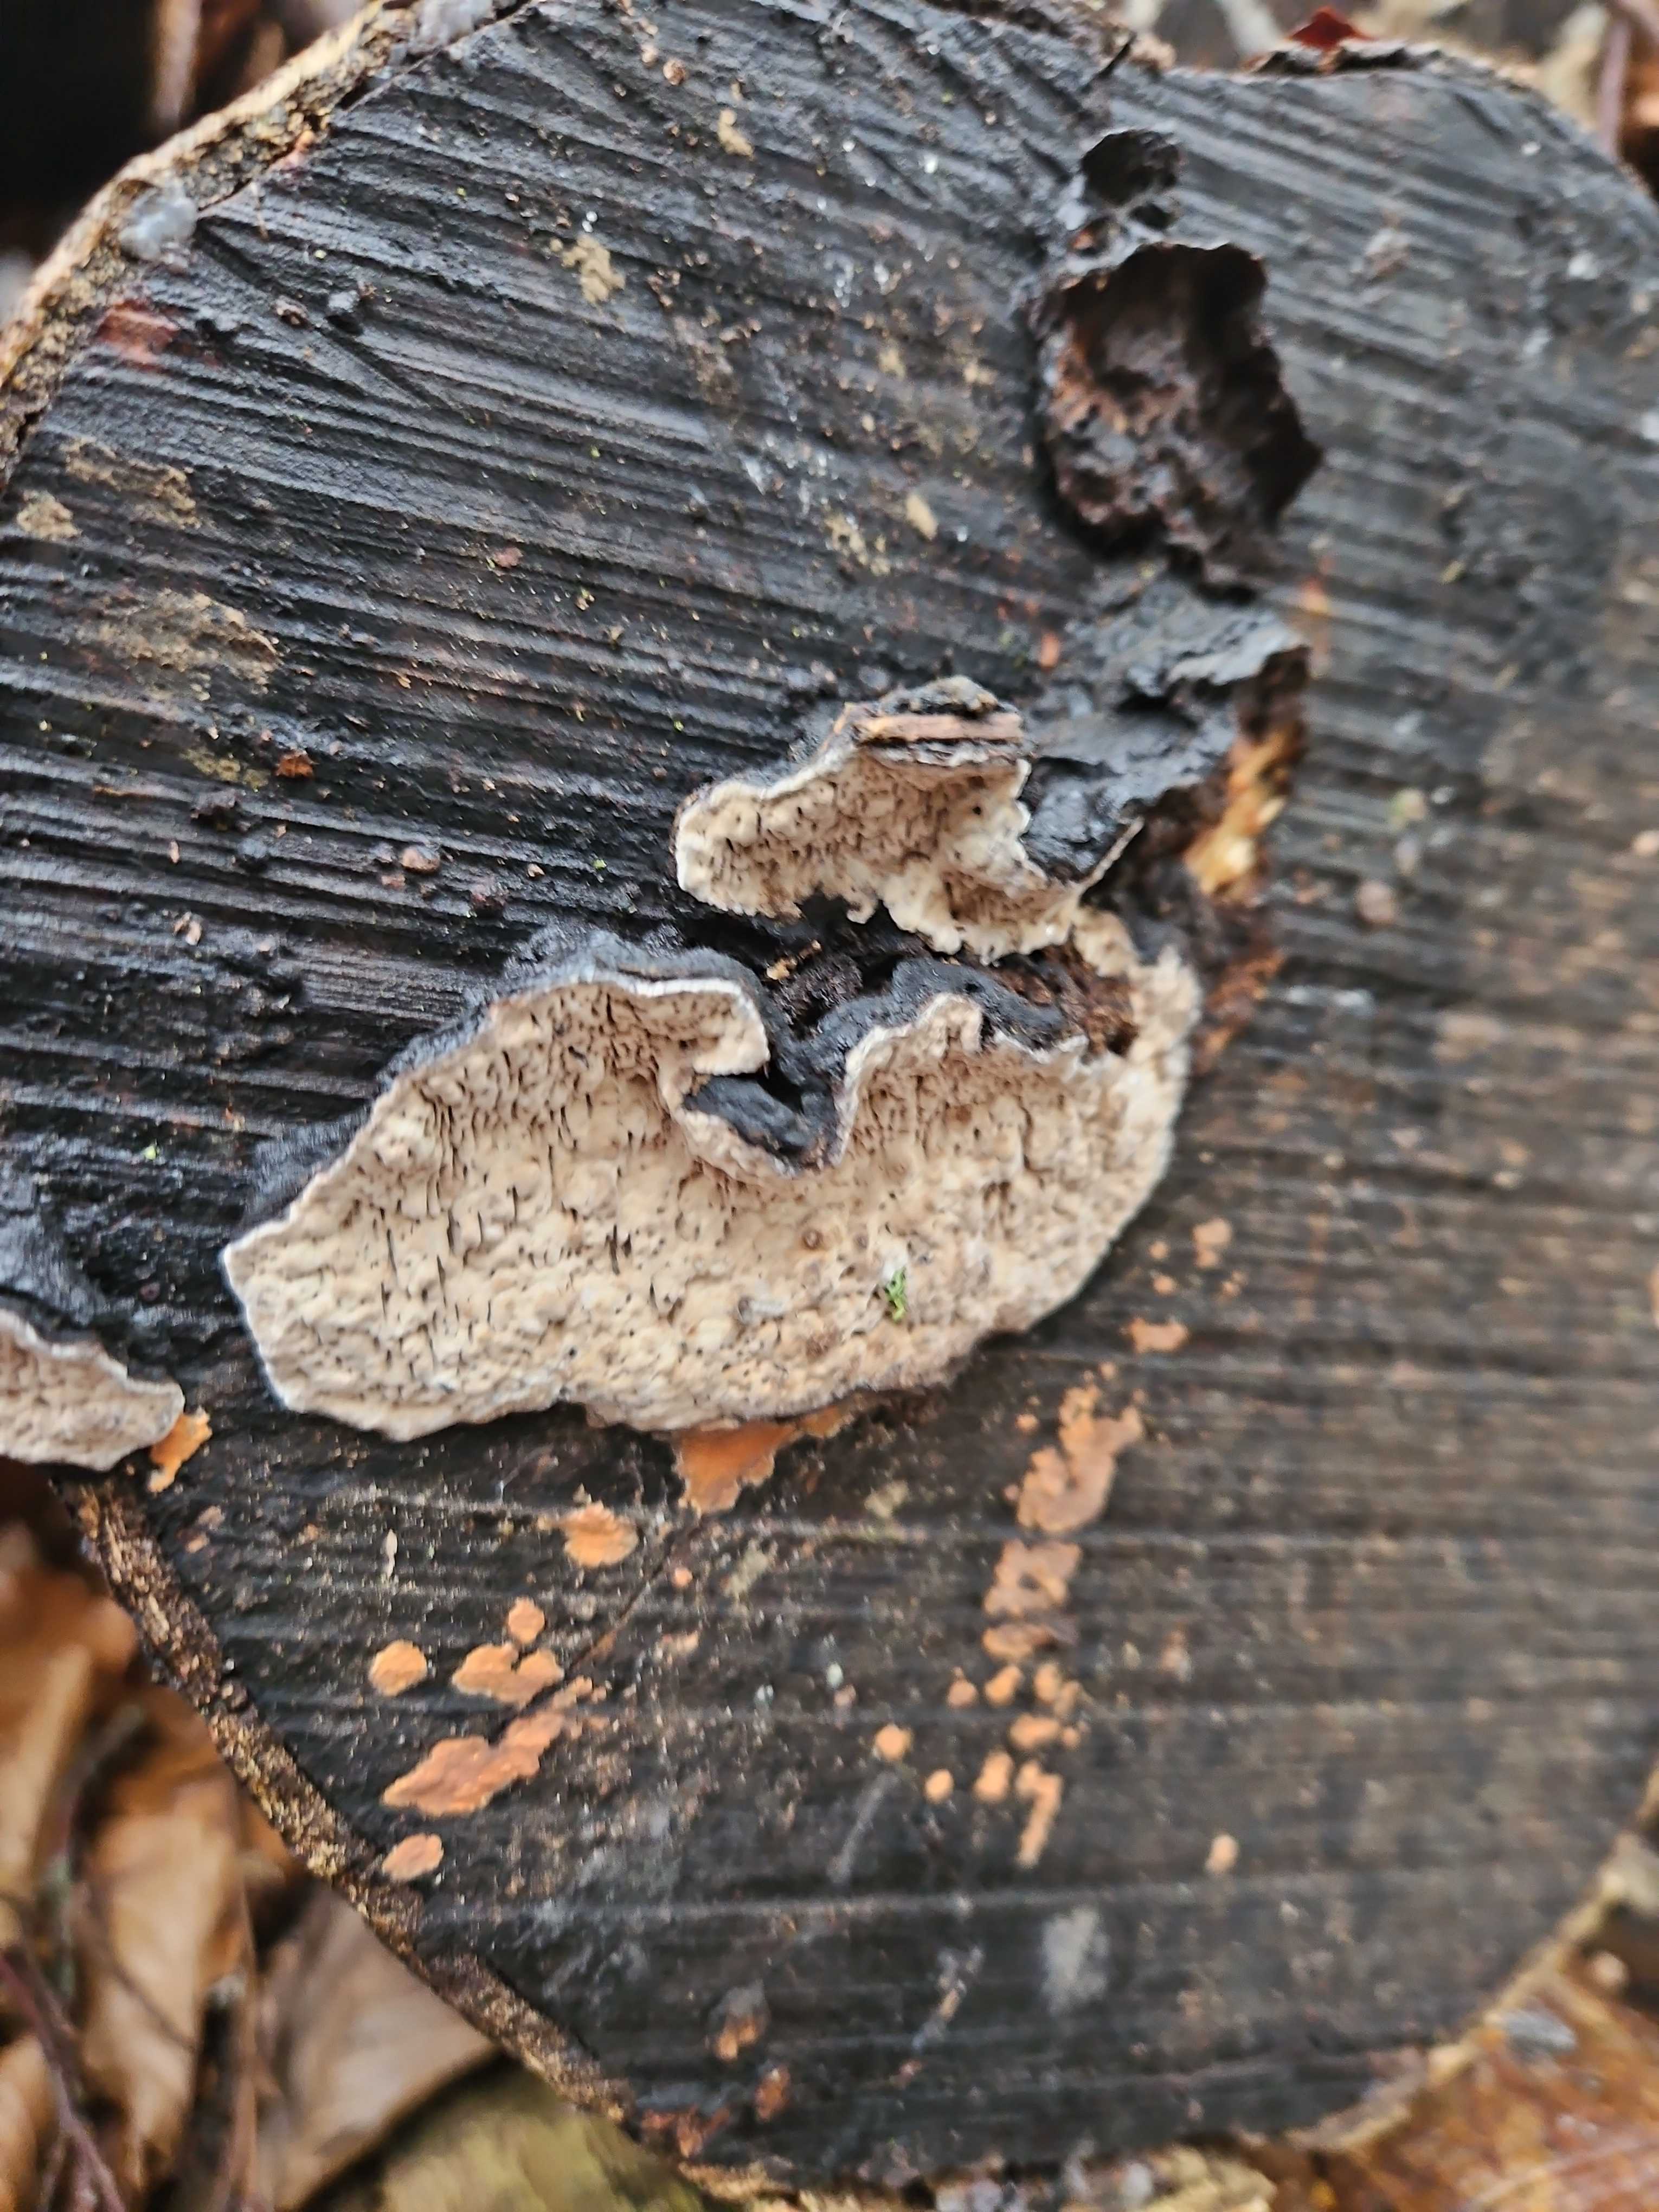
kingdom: Fungi
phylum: Basidiomycota
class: Agaricomycetes
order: Polyporales
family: Polyporaceae
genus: Podofomes
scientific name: Podofomes mollis
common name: blød begporesvamp
